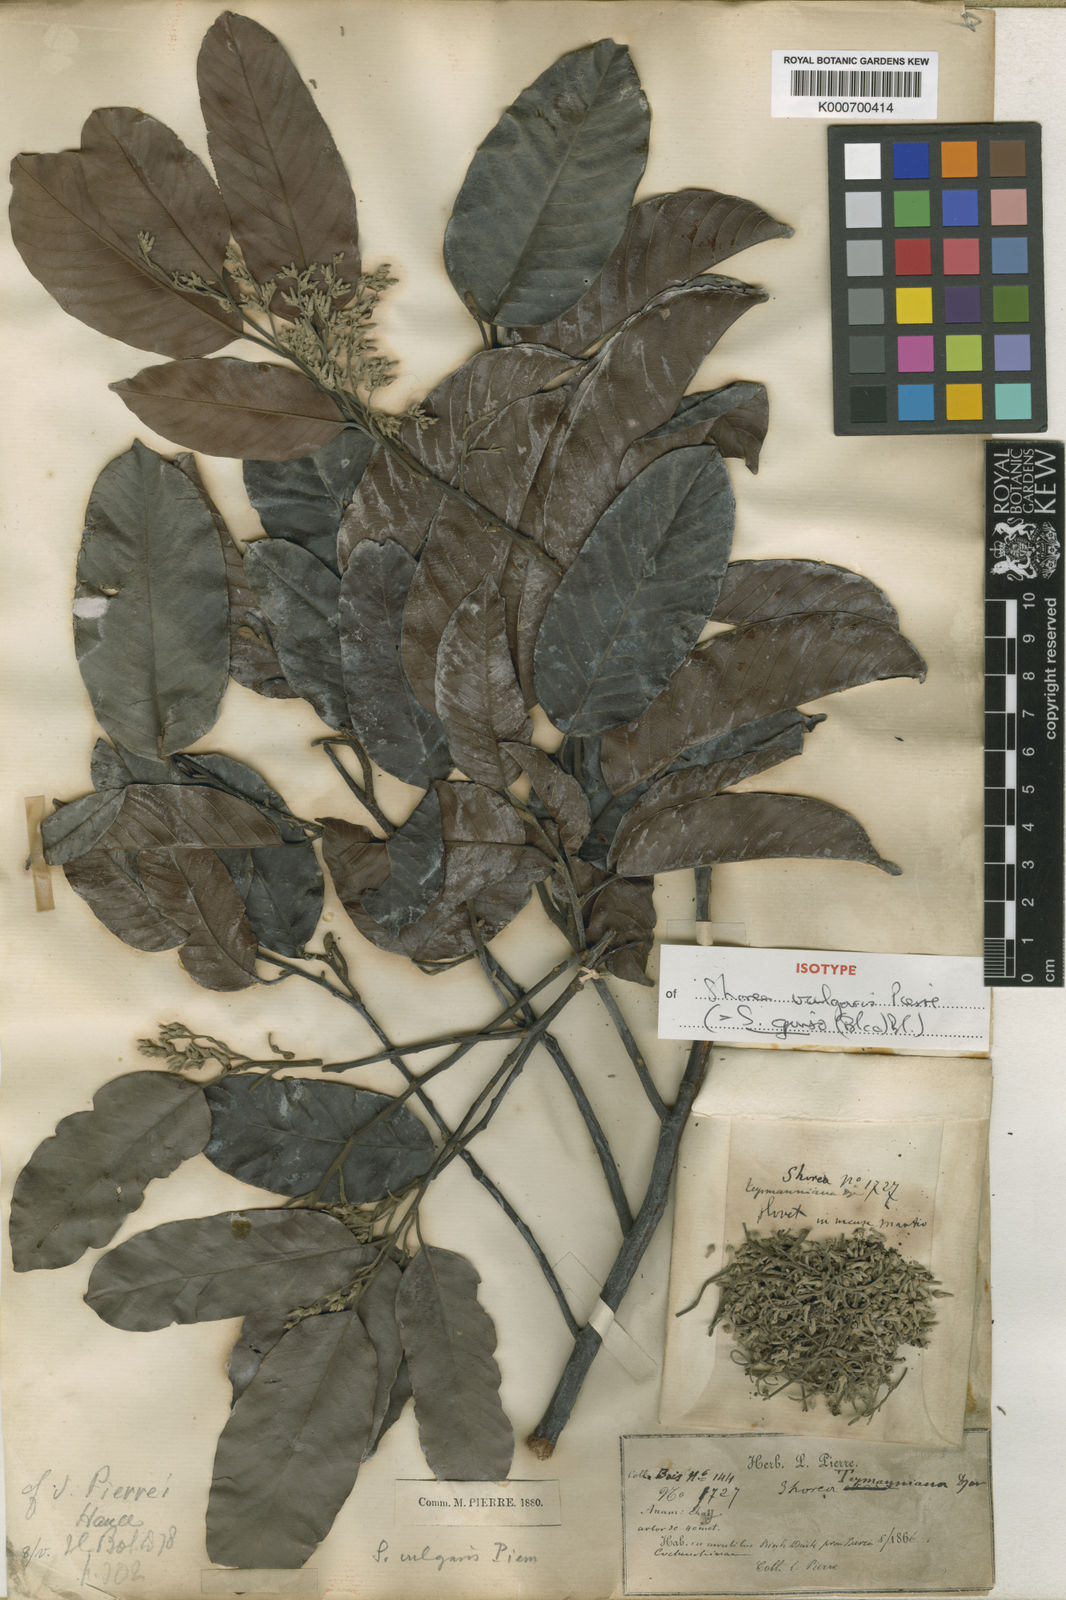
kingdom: Plantae
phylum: Tracheophyta
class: Magnoliopsida
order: Malvales
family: Dipterocarpaceae
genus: Shorea
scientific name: Shorea guiso
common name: Red balau
